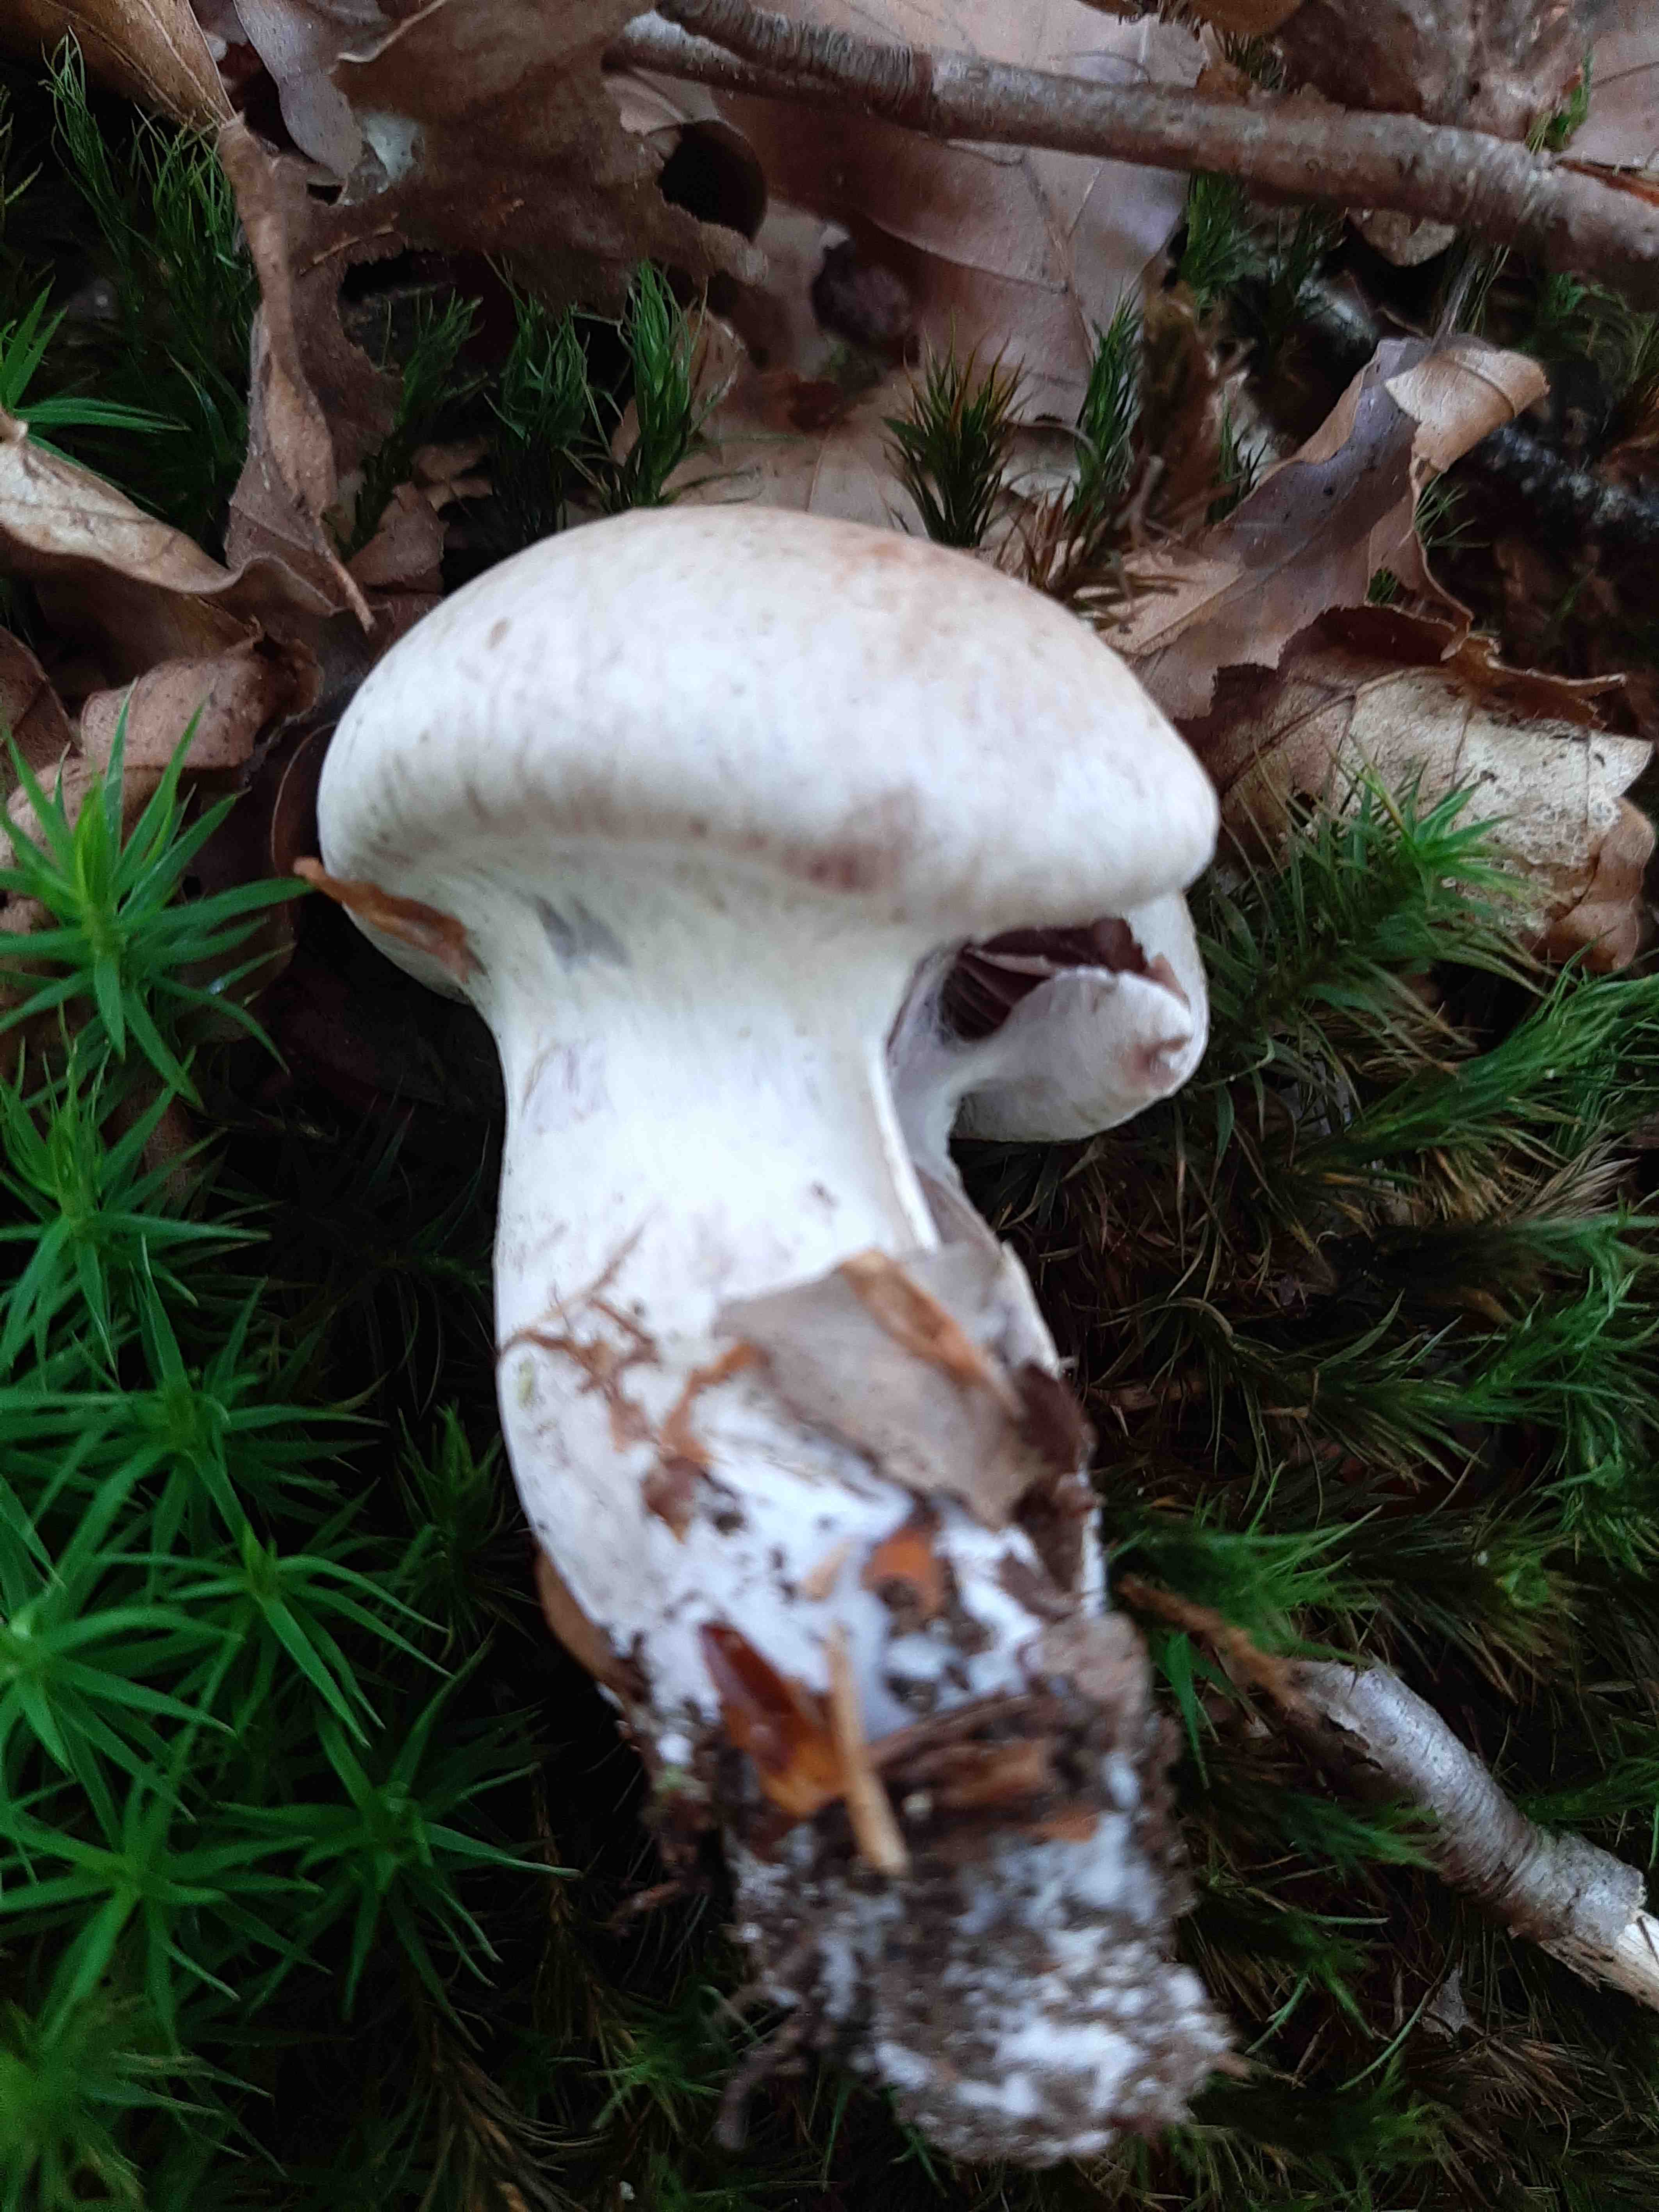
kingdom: Fungi
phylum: Basidiomycota
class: Agaricomycetes
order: Agaricales
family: Cortinariaceae
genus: Cortinarius
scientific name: Cortinarius
